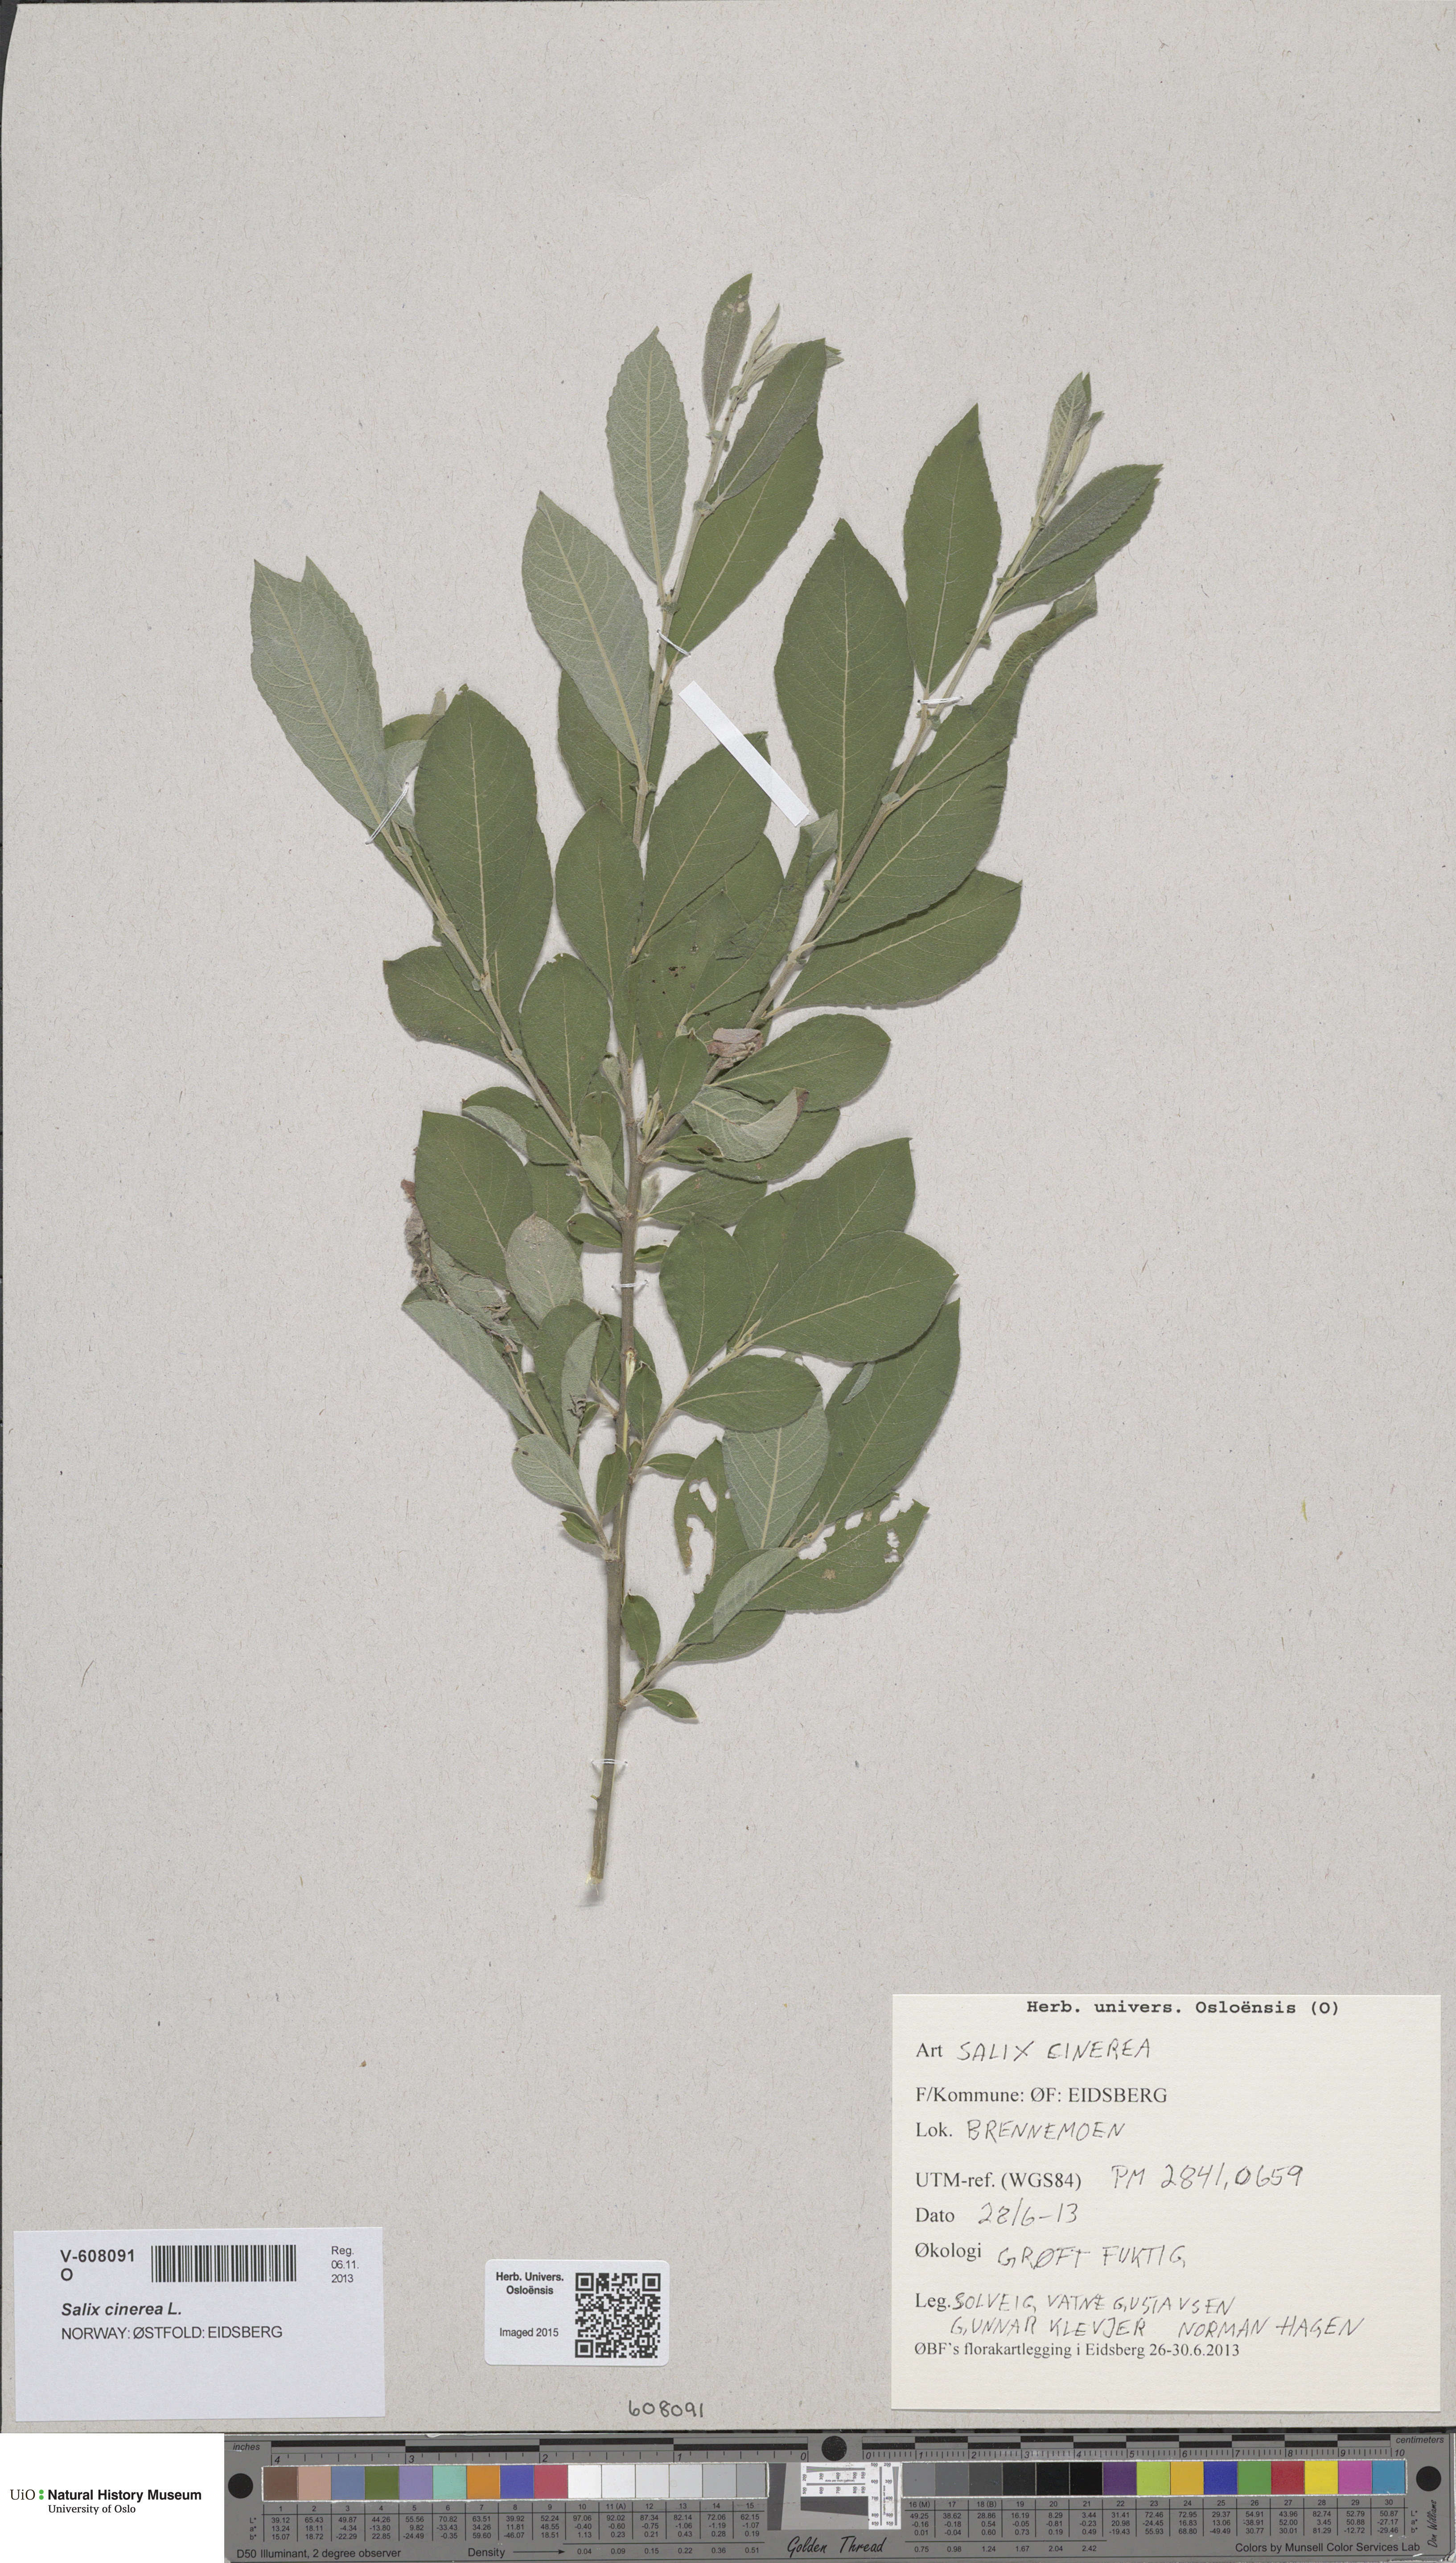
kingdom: Plantae
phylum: Tracheophyta
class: Magnoliopsida
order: Malpighiales
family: Salicaceae
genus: Salix
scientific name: Salix cinerea
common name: Common sallow
